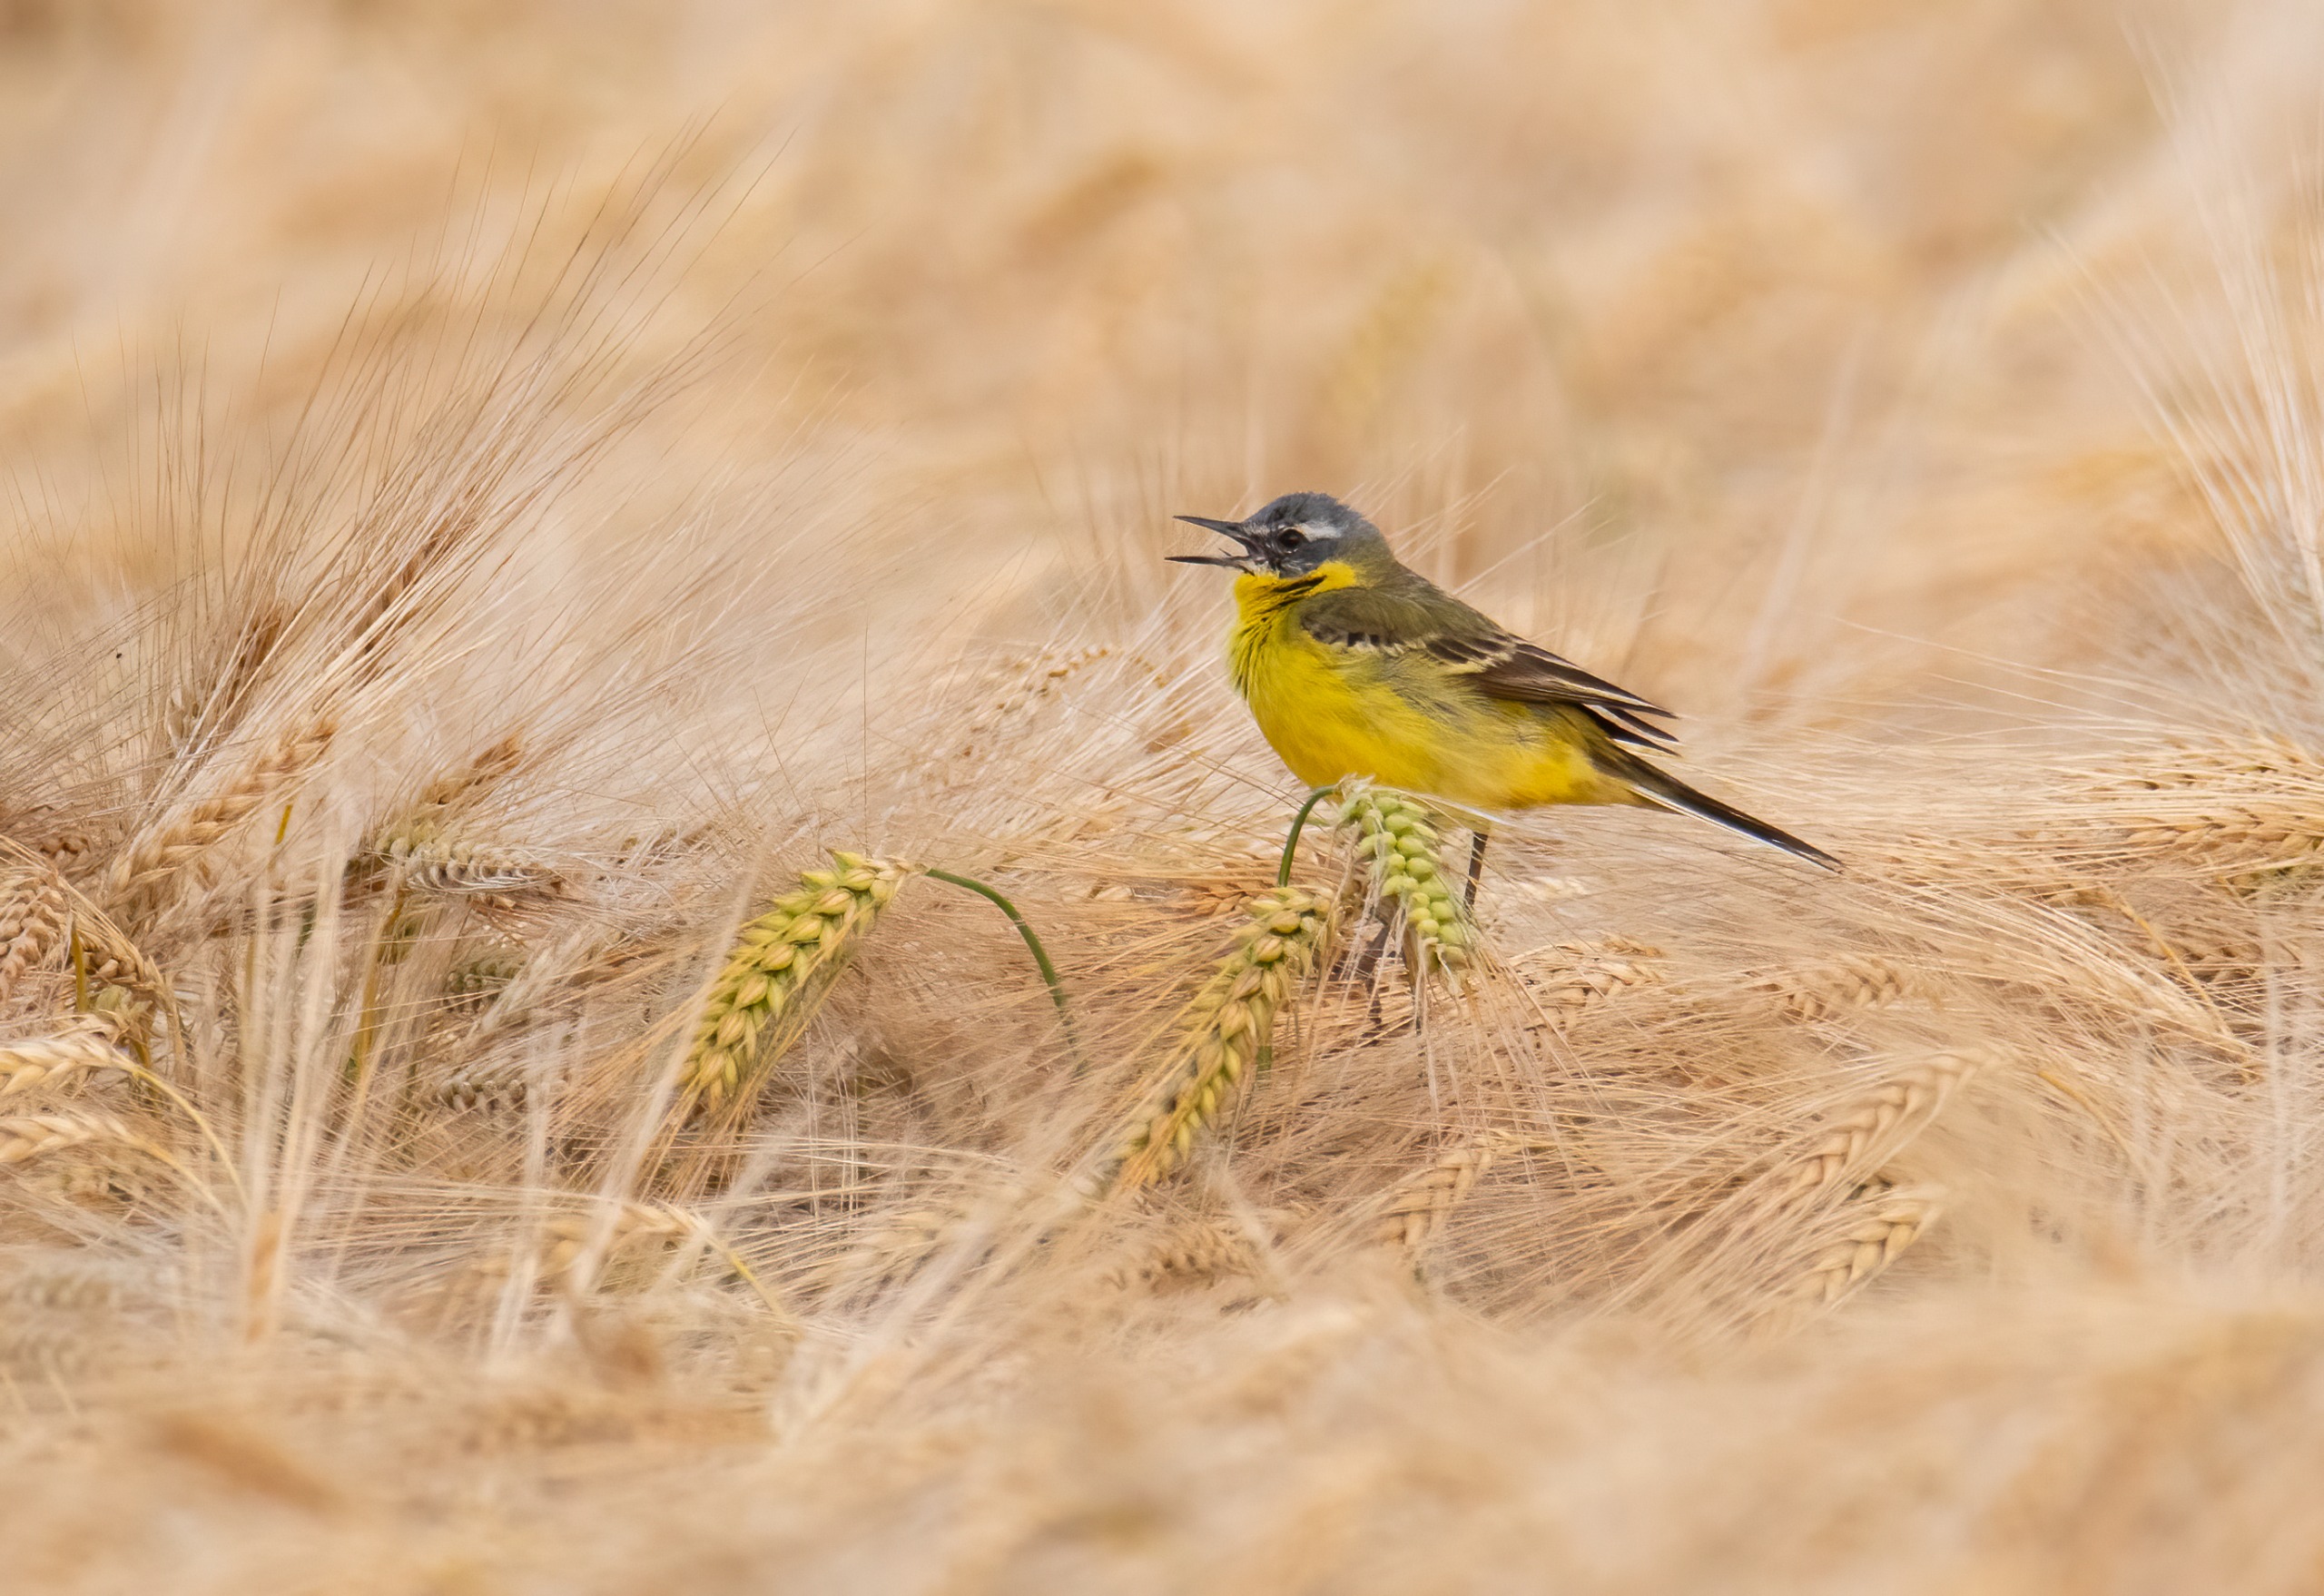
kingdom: Animalia
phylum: Chordata
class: Aves
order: Passeriformes
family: Motacillidae
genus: Motacilla
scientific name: Motacilla flava
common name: Gul vipstjert
